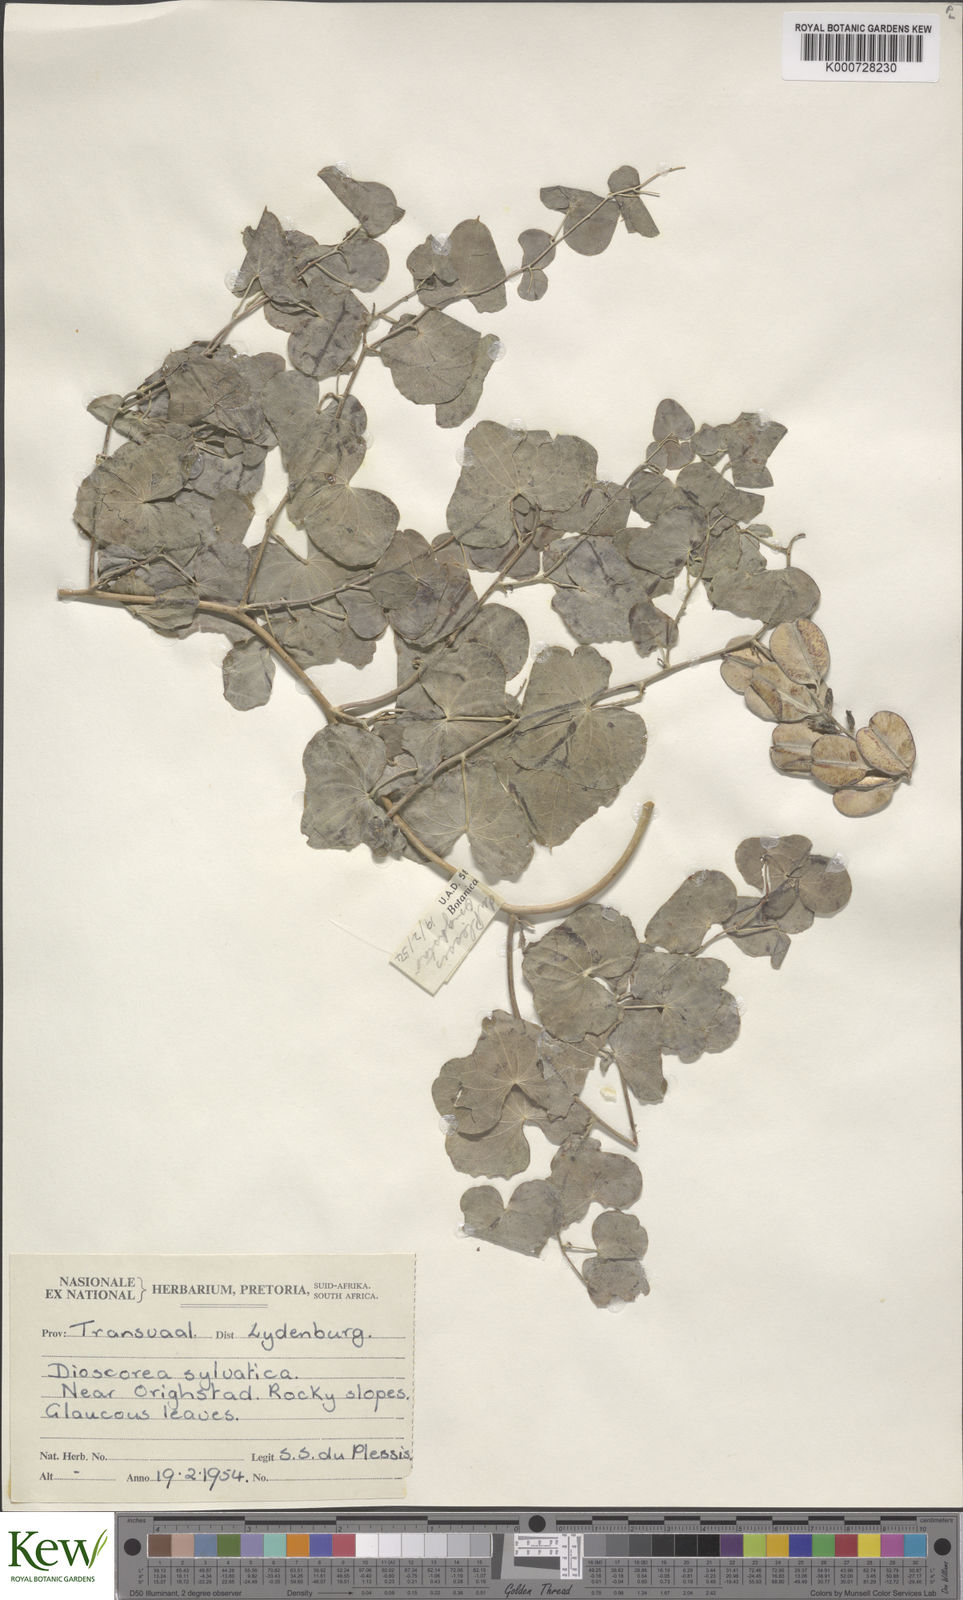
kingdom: Plantae
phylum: Tracheophyta
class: Liliopsida
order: Dioscoreales
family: Dioscoreaceae
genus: Dioscorea
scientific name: Dioscorea sylvatica
